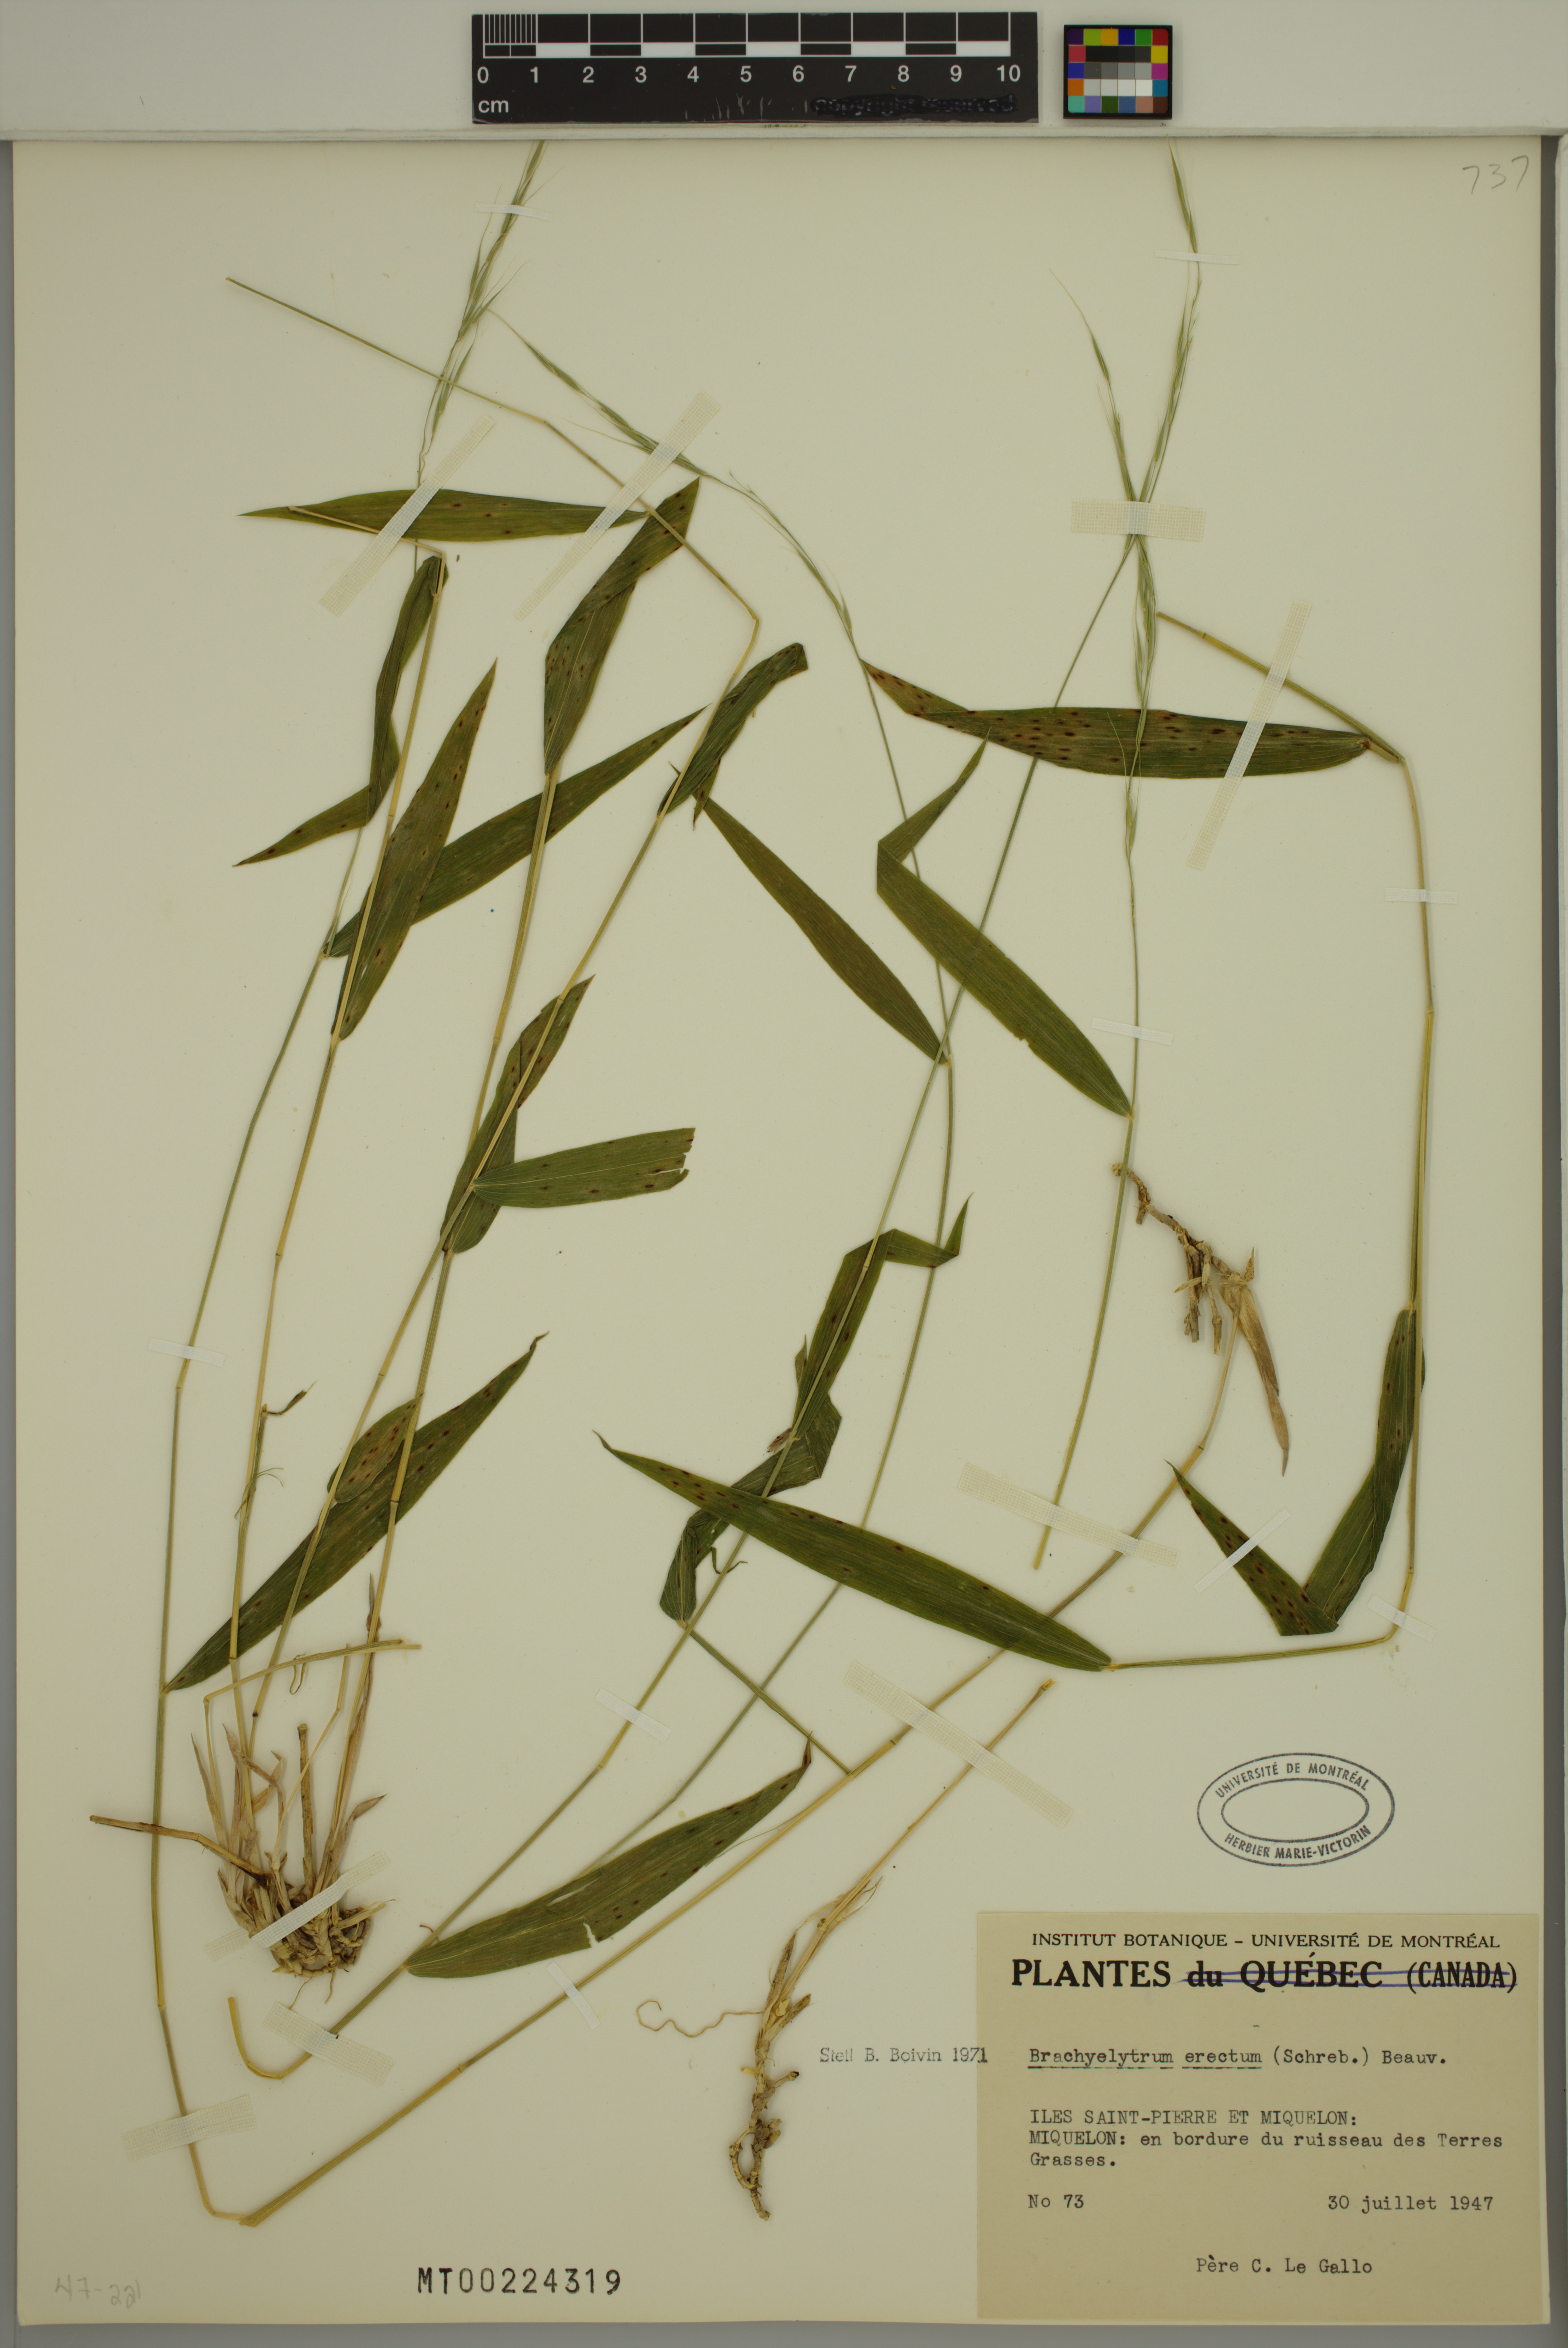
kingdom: Plantae
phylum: Tracheophyta
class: Liliopsida
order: Poales
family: Poaceae
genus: Brachyelytrum
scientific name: Brachyelytrum erectum
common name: Bearded shorthusk
